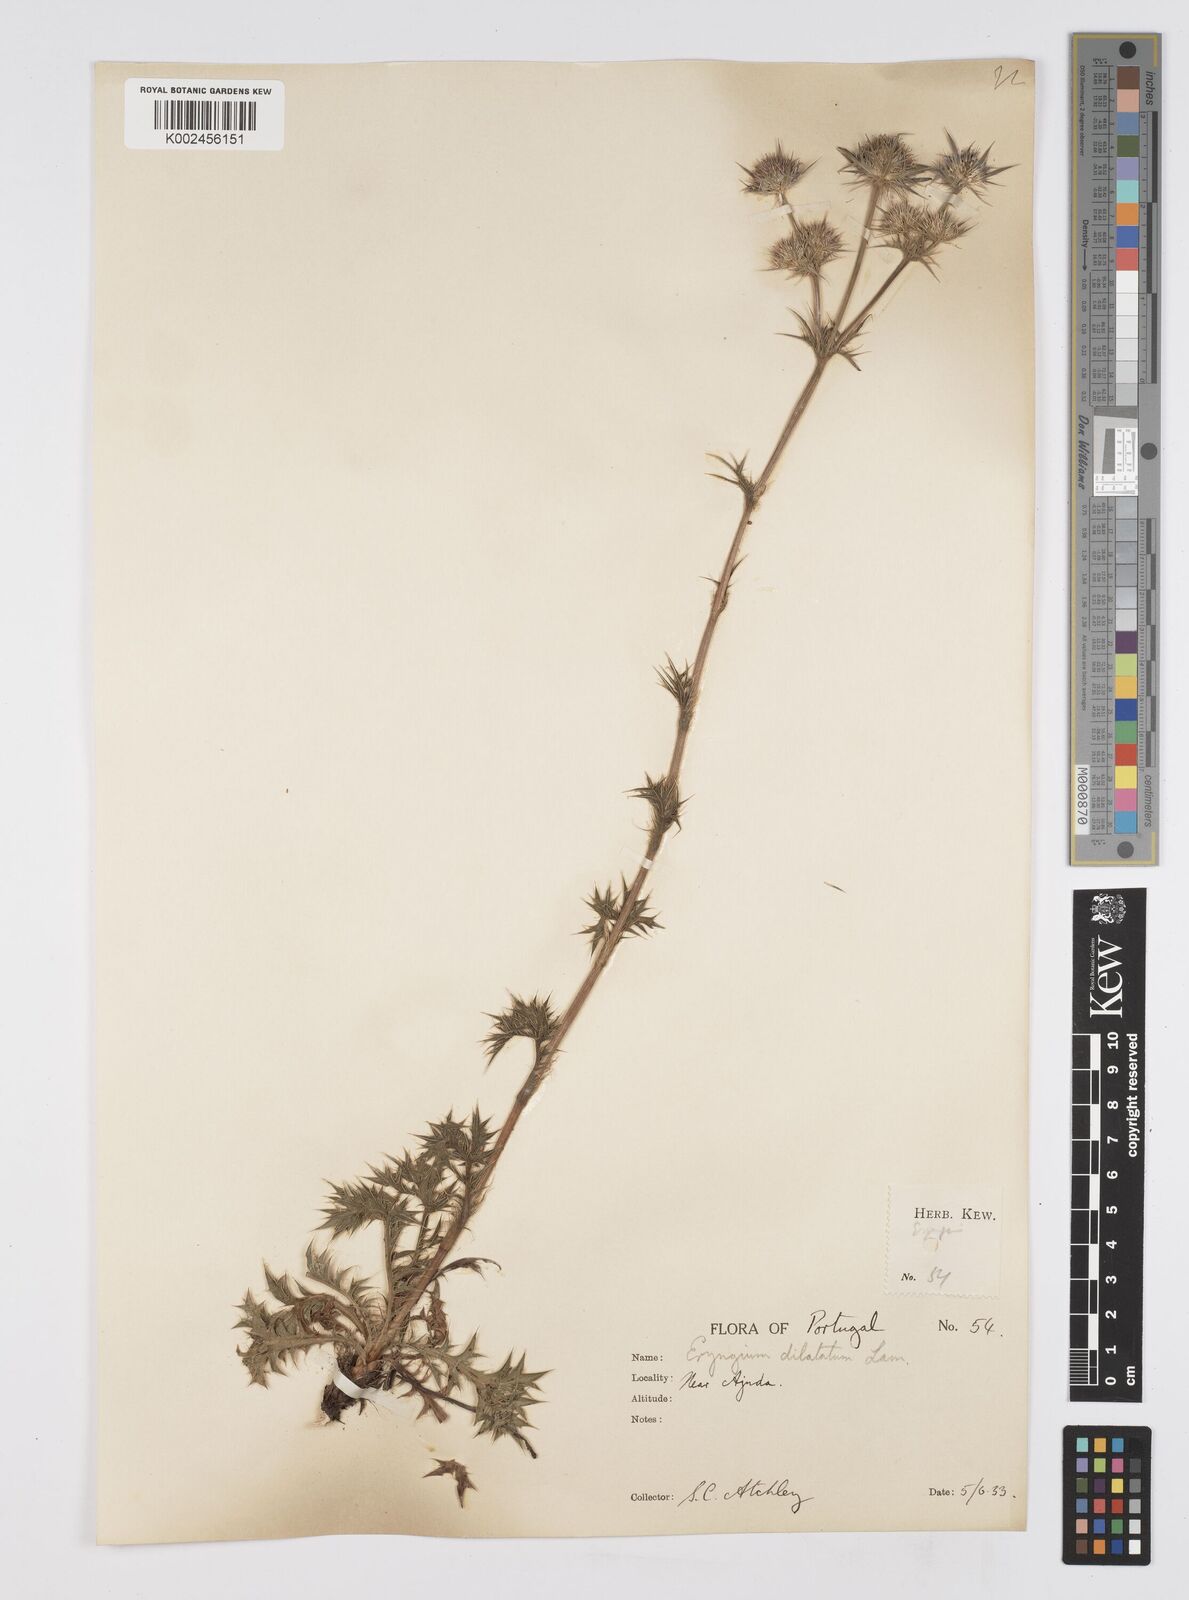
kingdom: Plantae
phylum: Tracheophyta
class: Magnoliopsida
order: Apiales
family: Apiaceae
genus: Eryngium
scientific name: Eryngium dilatatum
